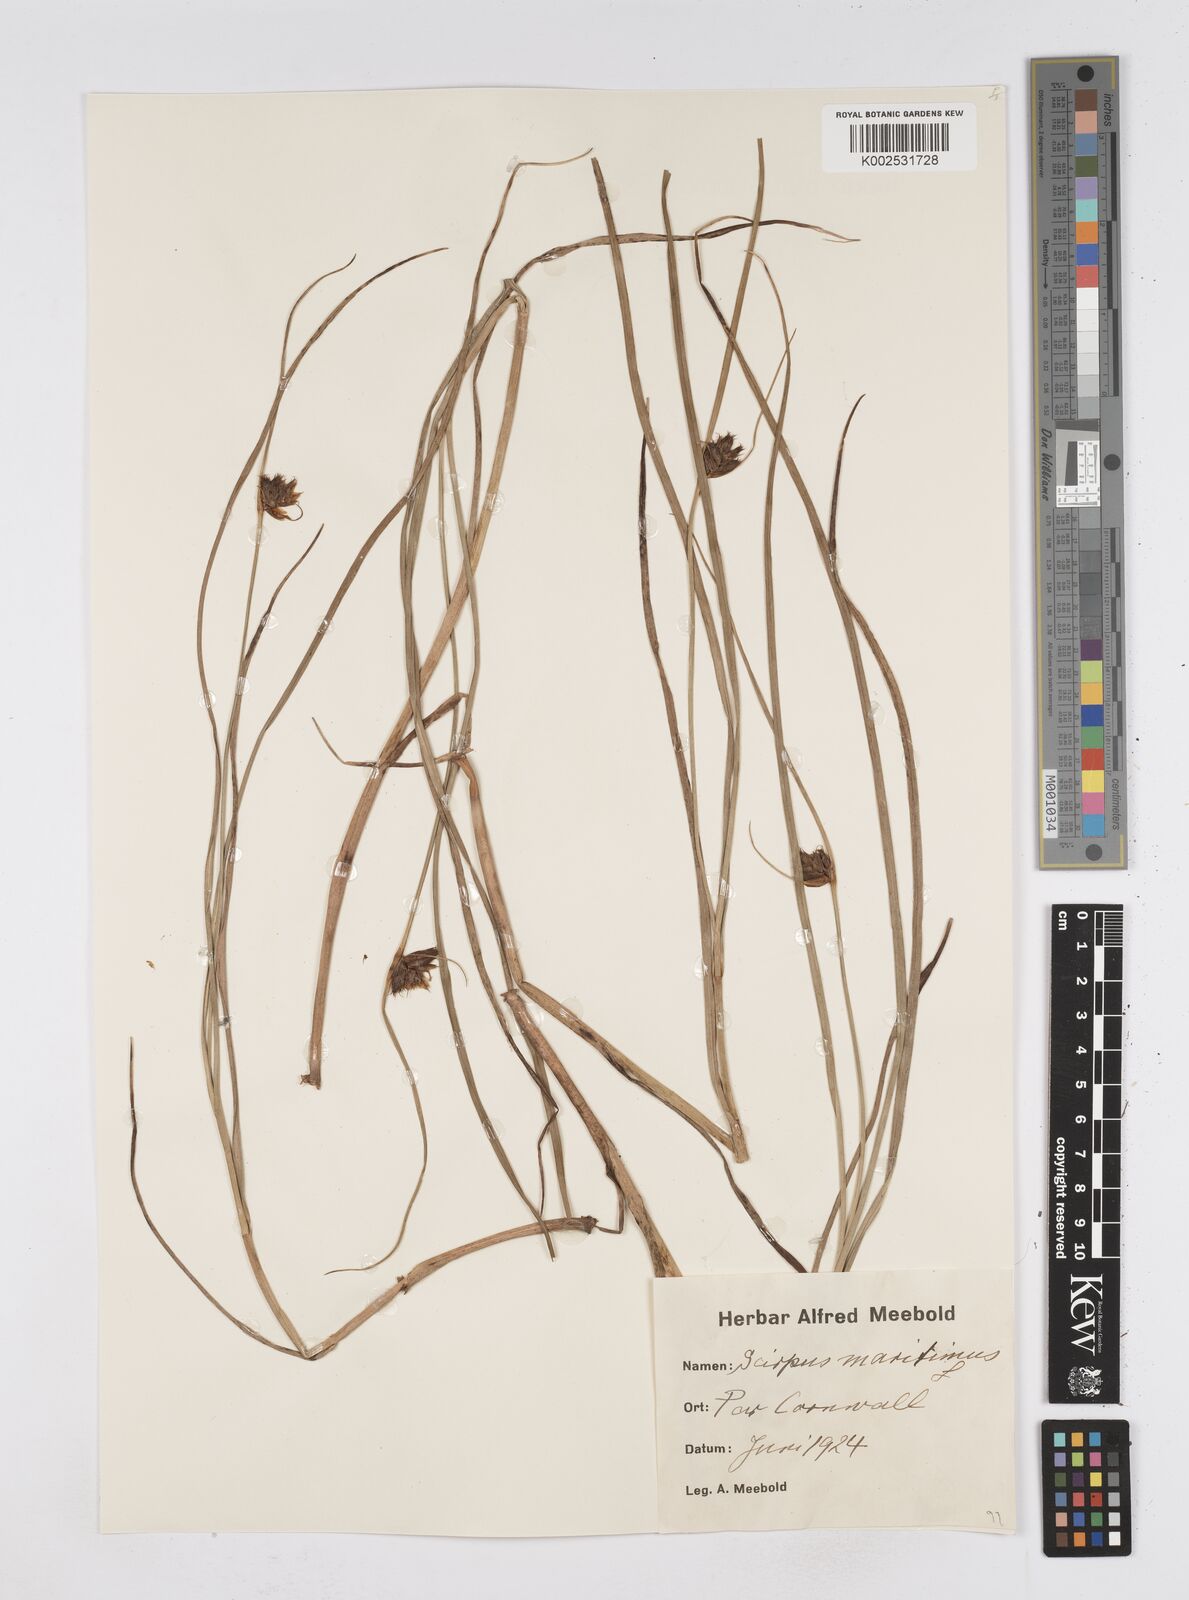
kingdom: Plantae
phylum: Tracheophyta
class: Liliopsida
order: Poales
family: Cyperaceae
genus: Bolboschoenus
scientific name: Bolboschoenus maritimus
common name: Sea club-rush
